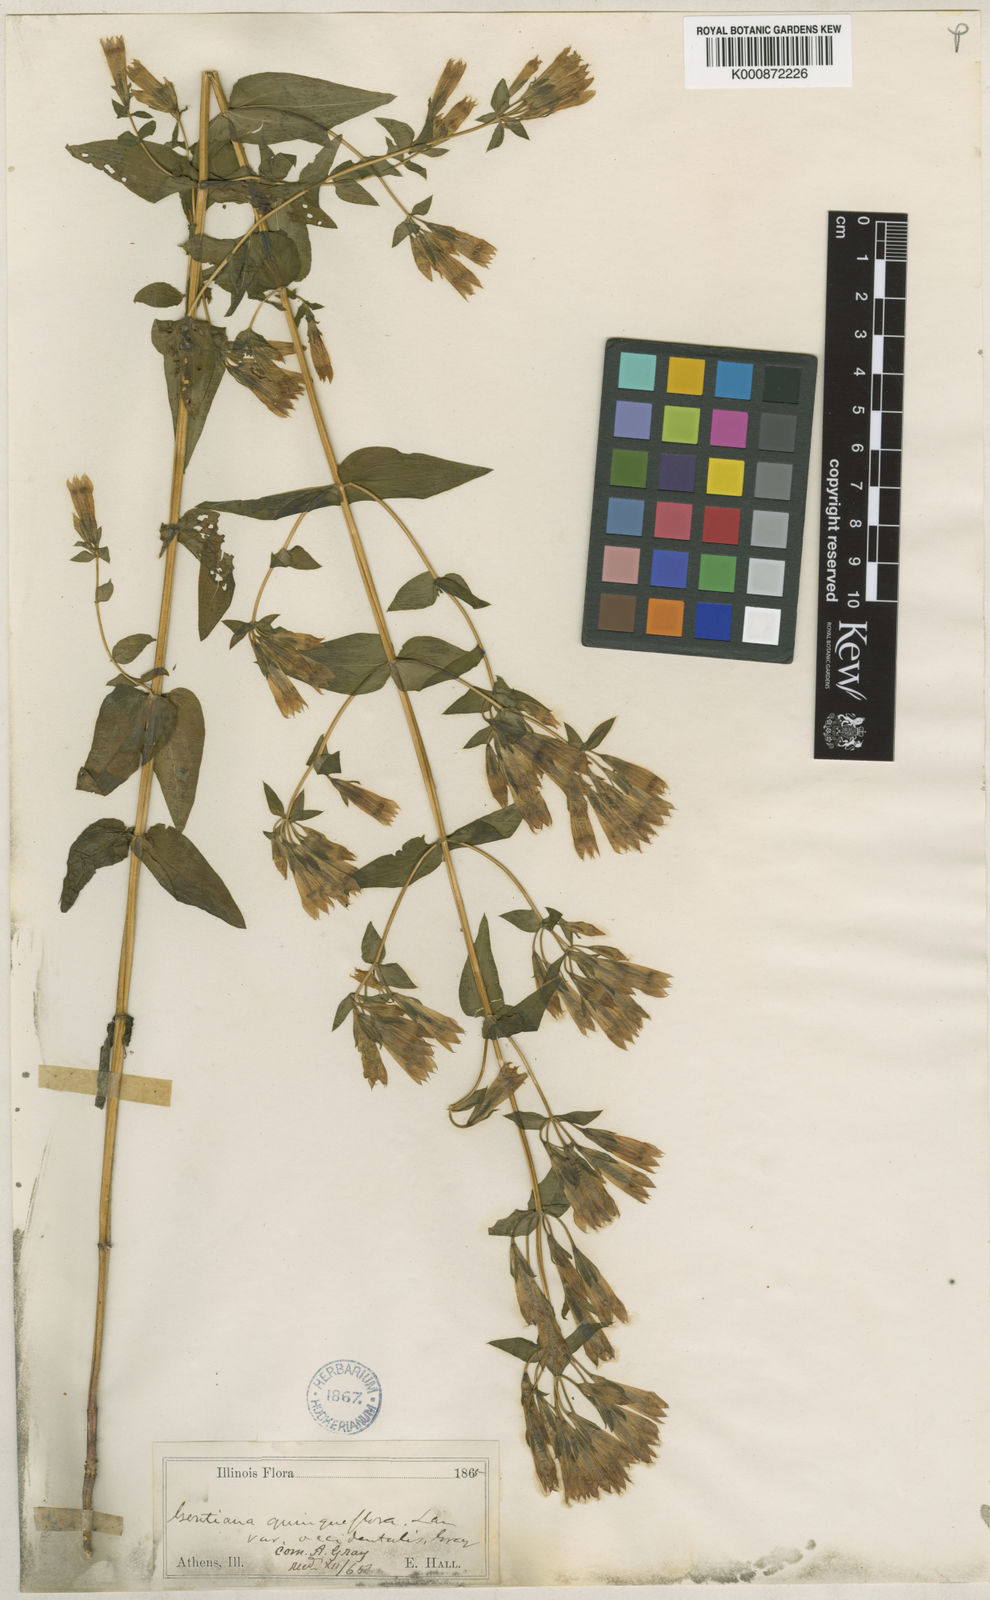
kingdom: Plantae
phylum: Tracheophyta
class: Magnoliopsida
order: Gentianales
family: Gentianaceae
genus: Gentianella
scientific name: Gentianella quinquefolia
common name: Agueweed
